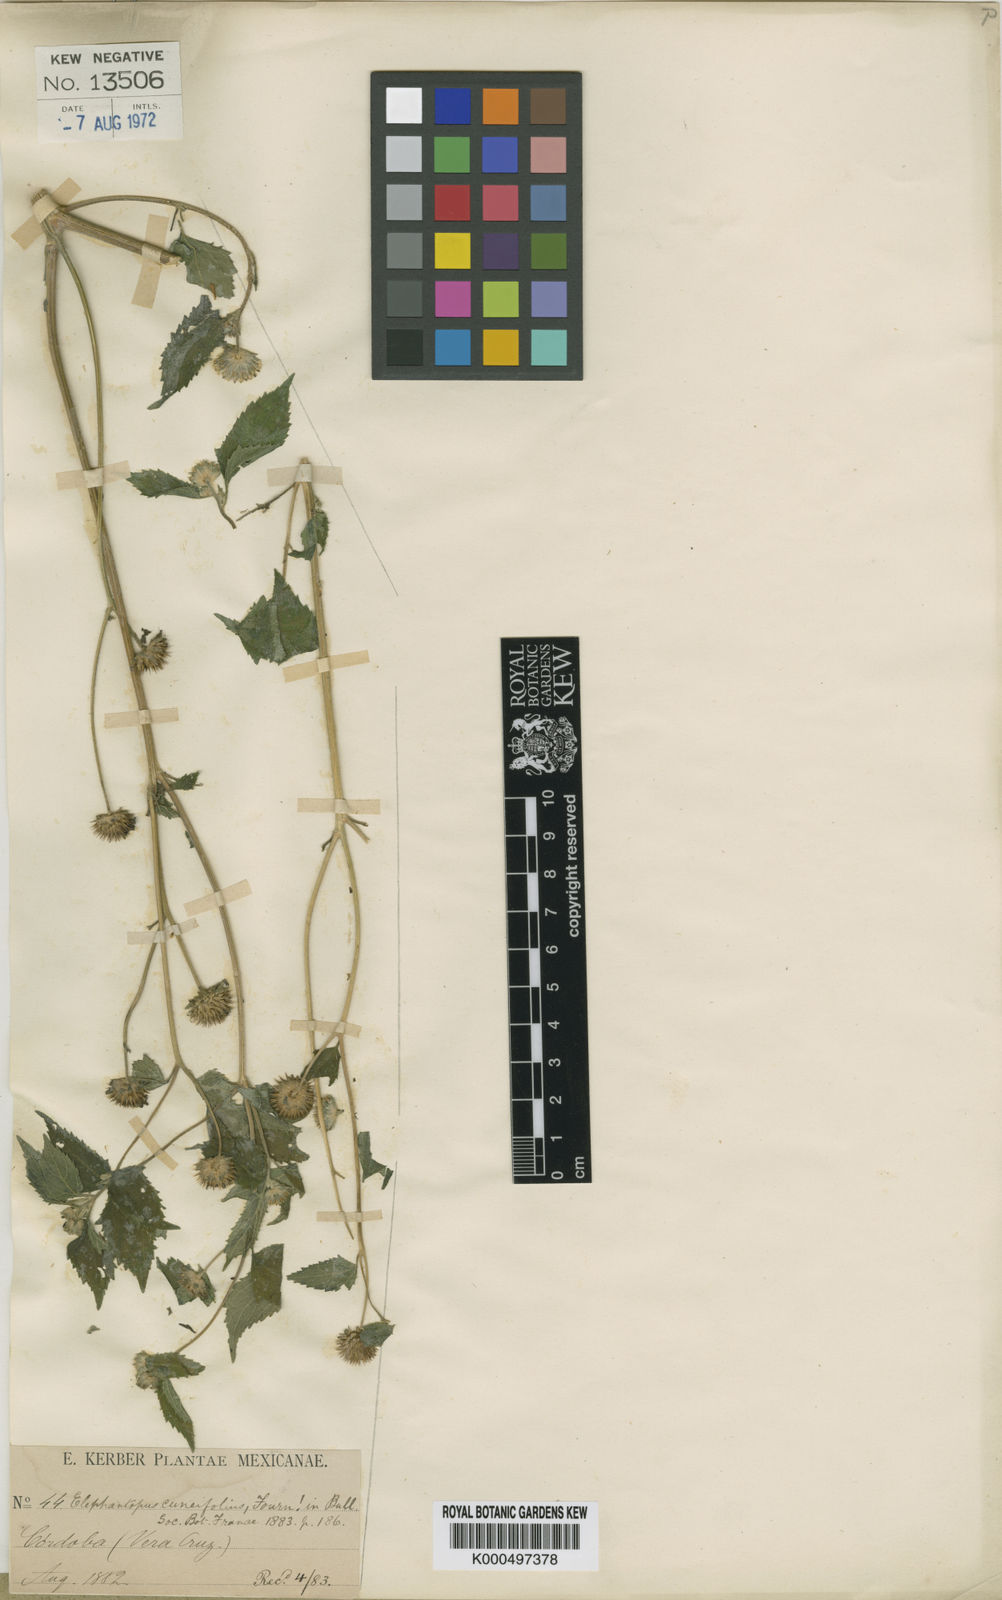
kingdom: Plantae
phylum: Tracheophyta
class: Magnoliopsida
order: Asterales
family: Asteraceae
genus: Melanthera
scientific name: Melanthera nivea
